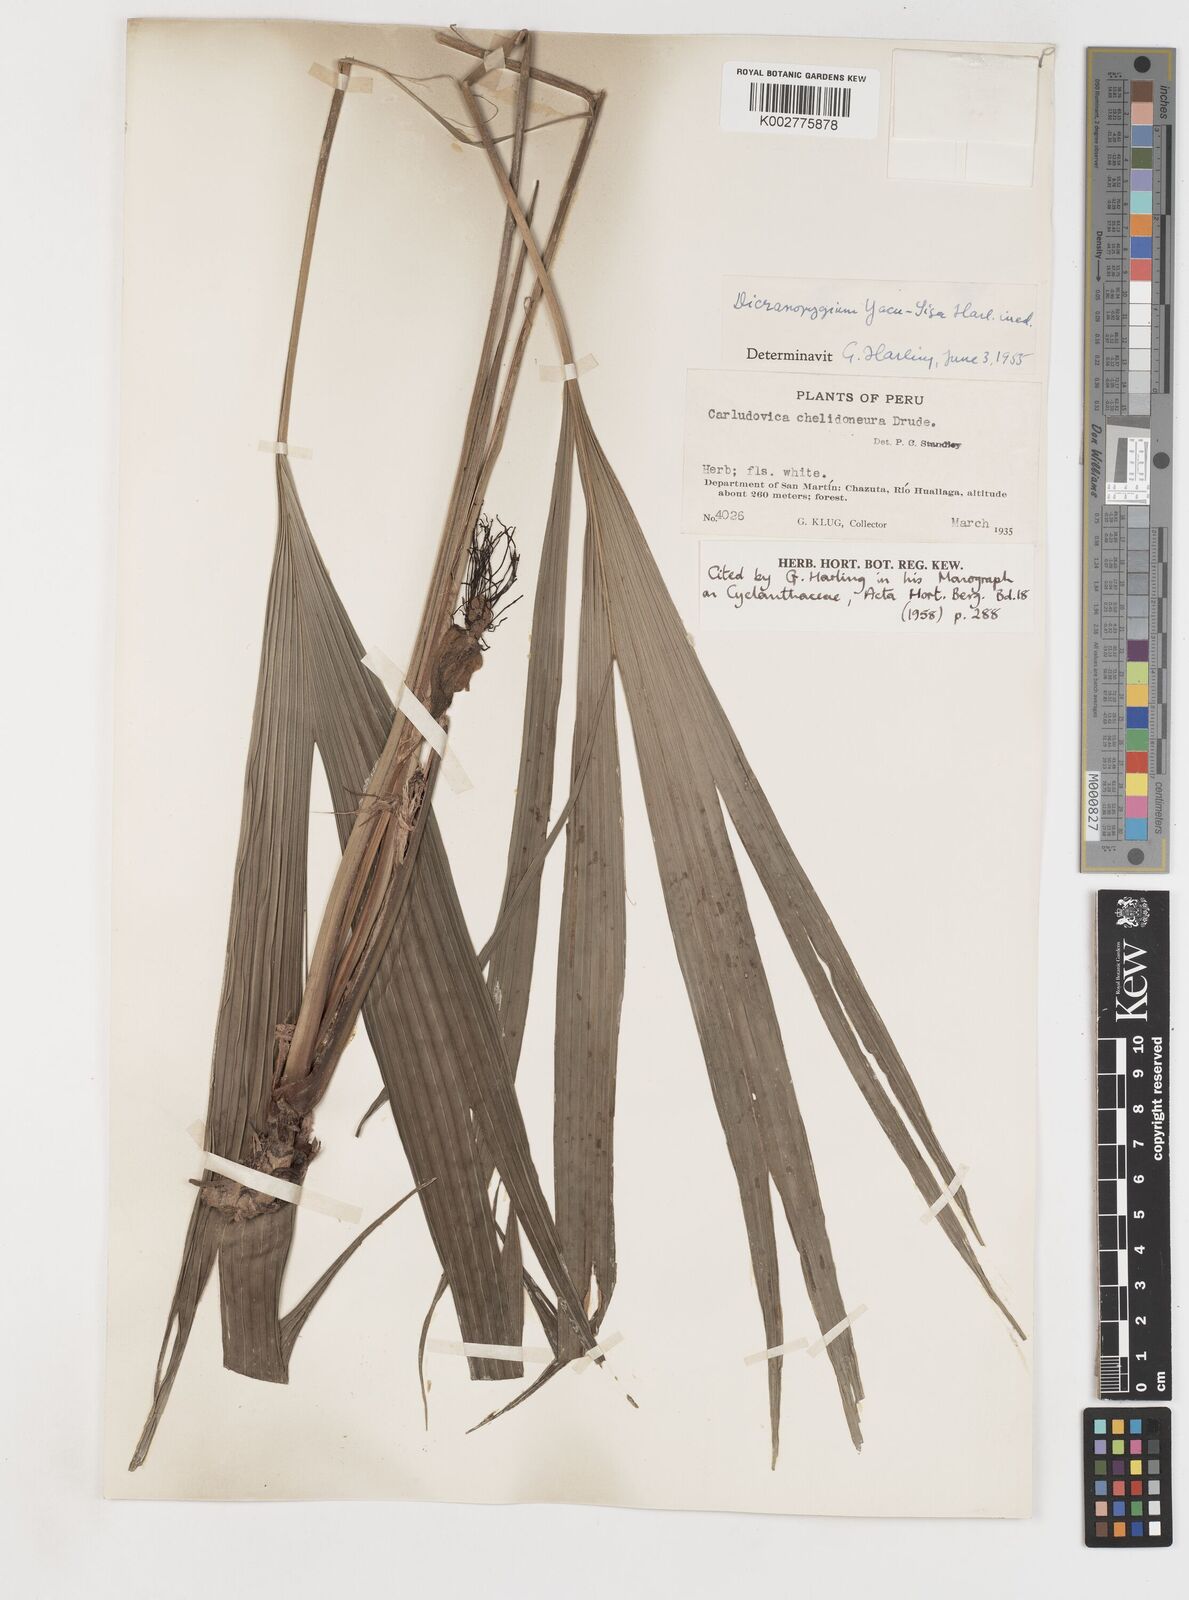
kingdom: Plantae
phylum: Tracheophyta
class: Liliopsida
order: Pandanales
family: Cyclanthaceae
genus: Dicranopygium
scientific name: Dicranopygium yacu-sisa
